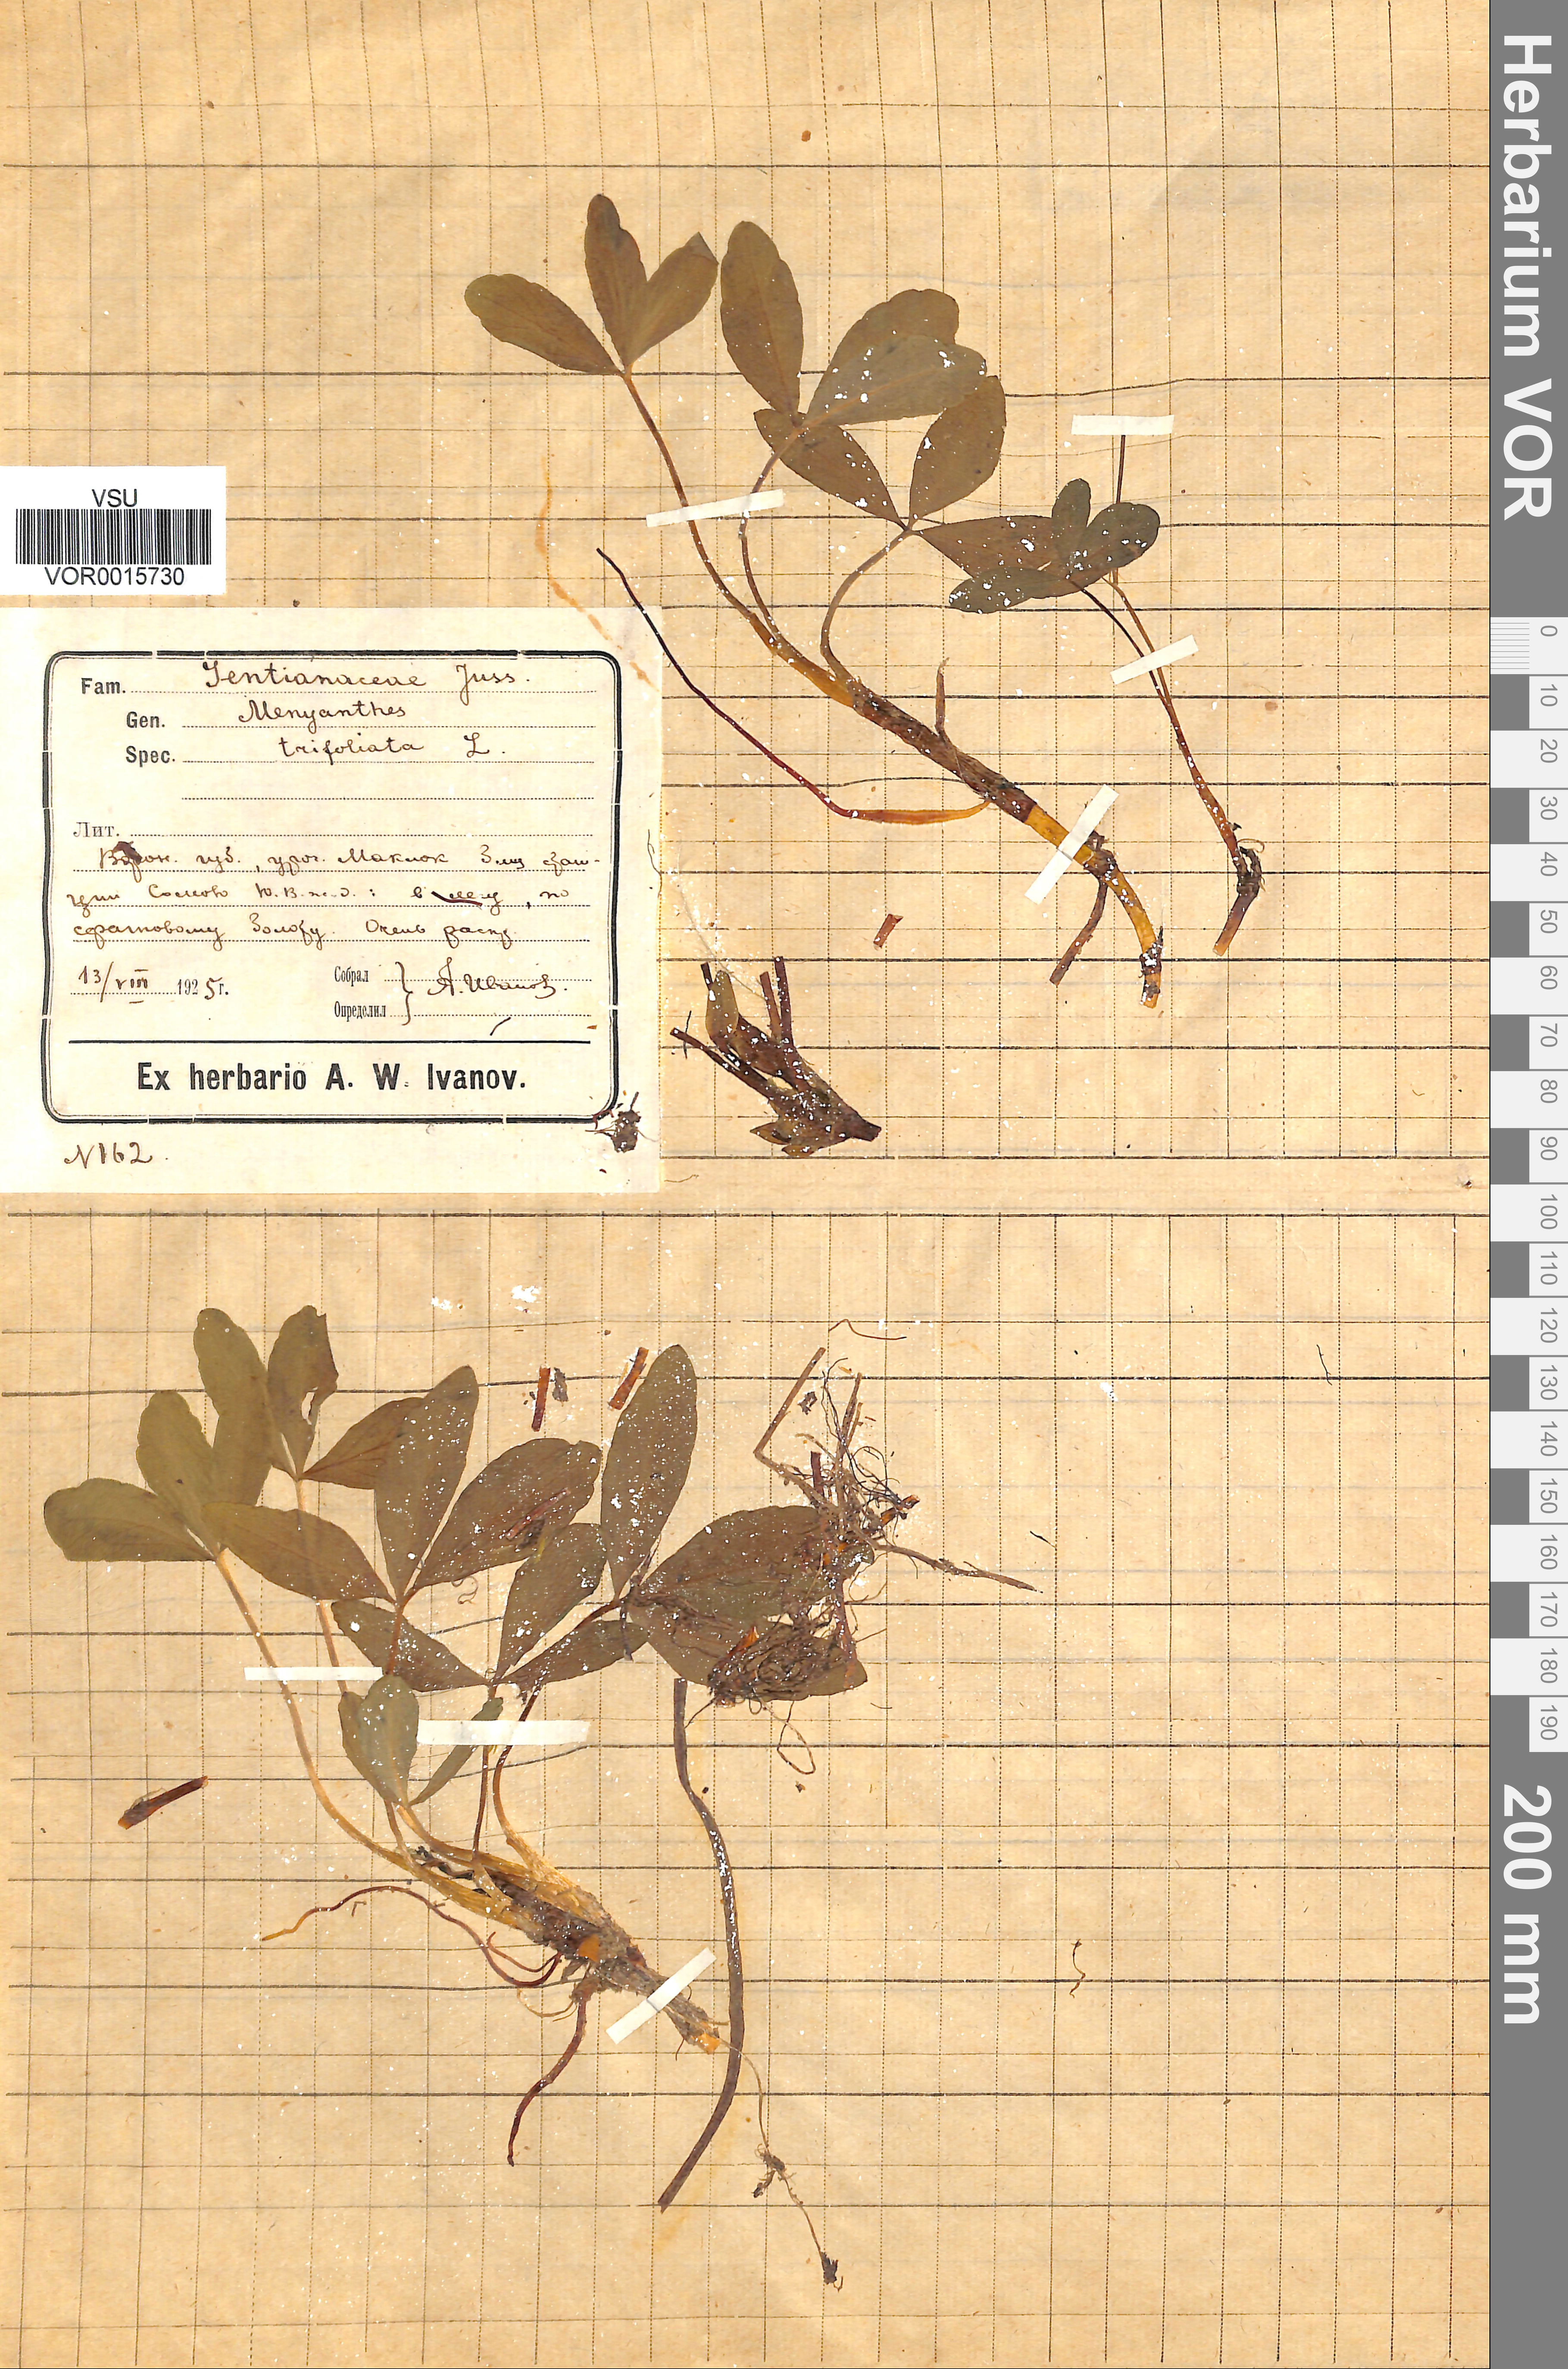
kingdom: Plantae
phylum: Tracheophyta
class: Magnoliopsida
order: Asterales
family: Menyanthaceae
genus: Menyanthes
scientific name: Menyanthes trifoliata
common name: Bogbean
